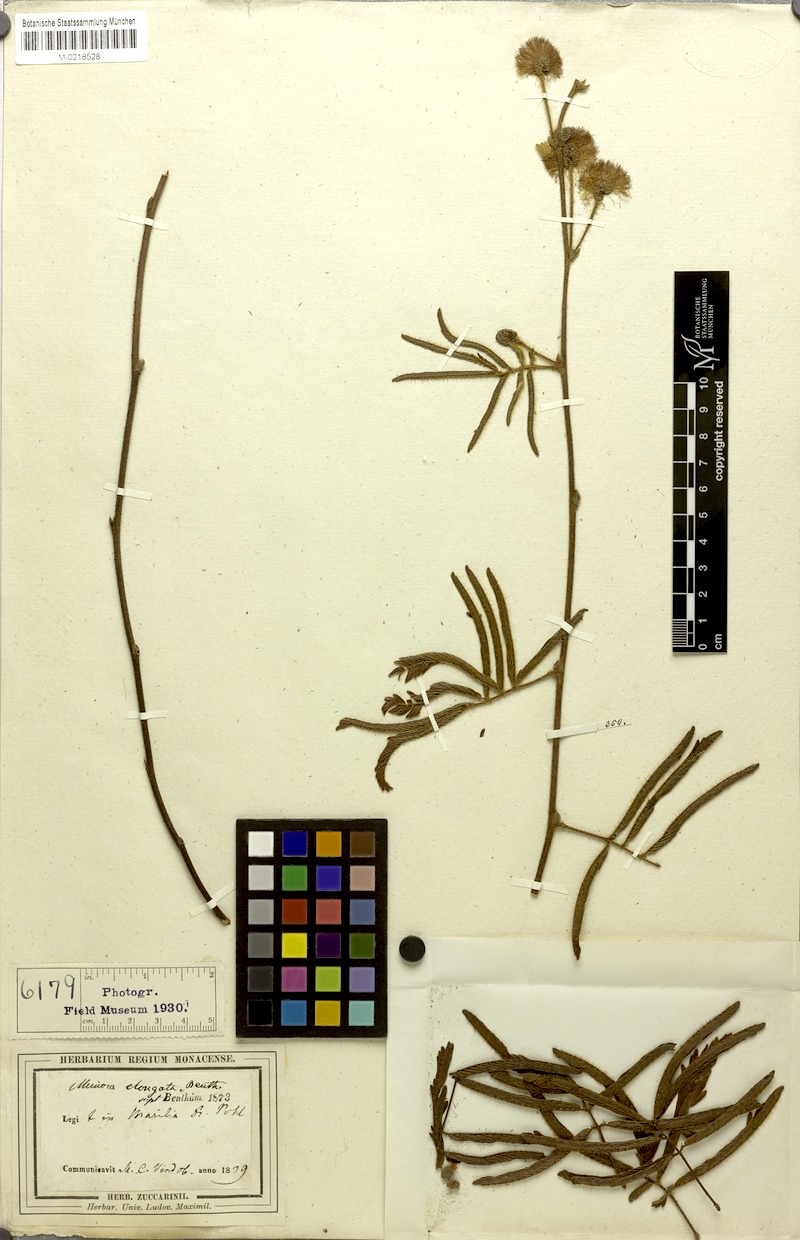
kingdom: Plantae
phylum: Tracheophyta
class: Magnoliopsida
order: Fabales
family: Fabaceae
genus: Mimosa
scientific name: Mimosa distans
